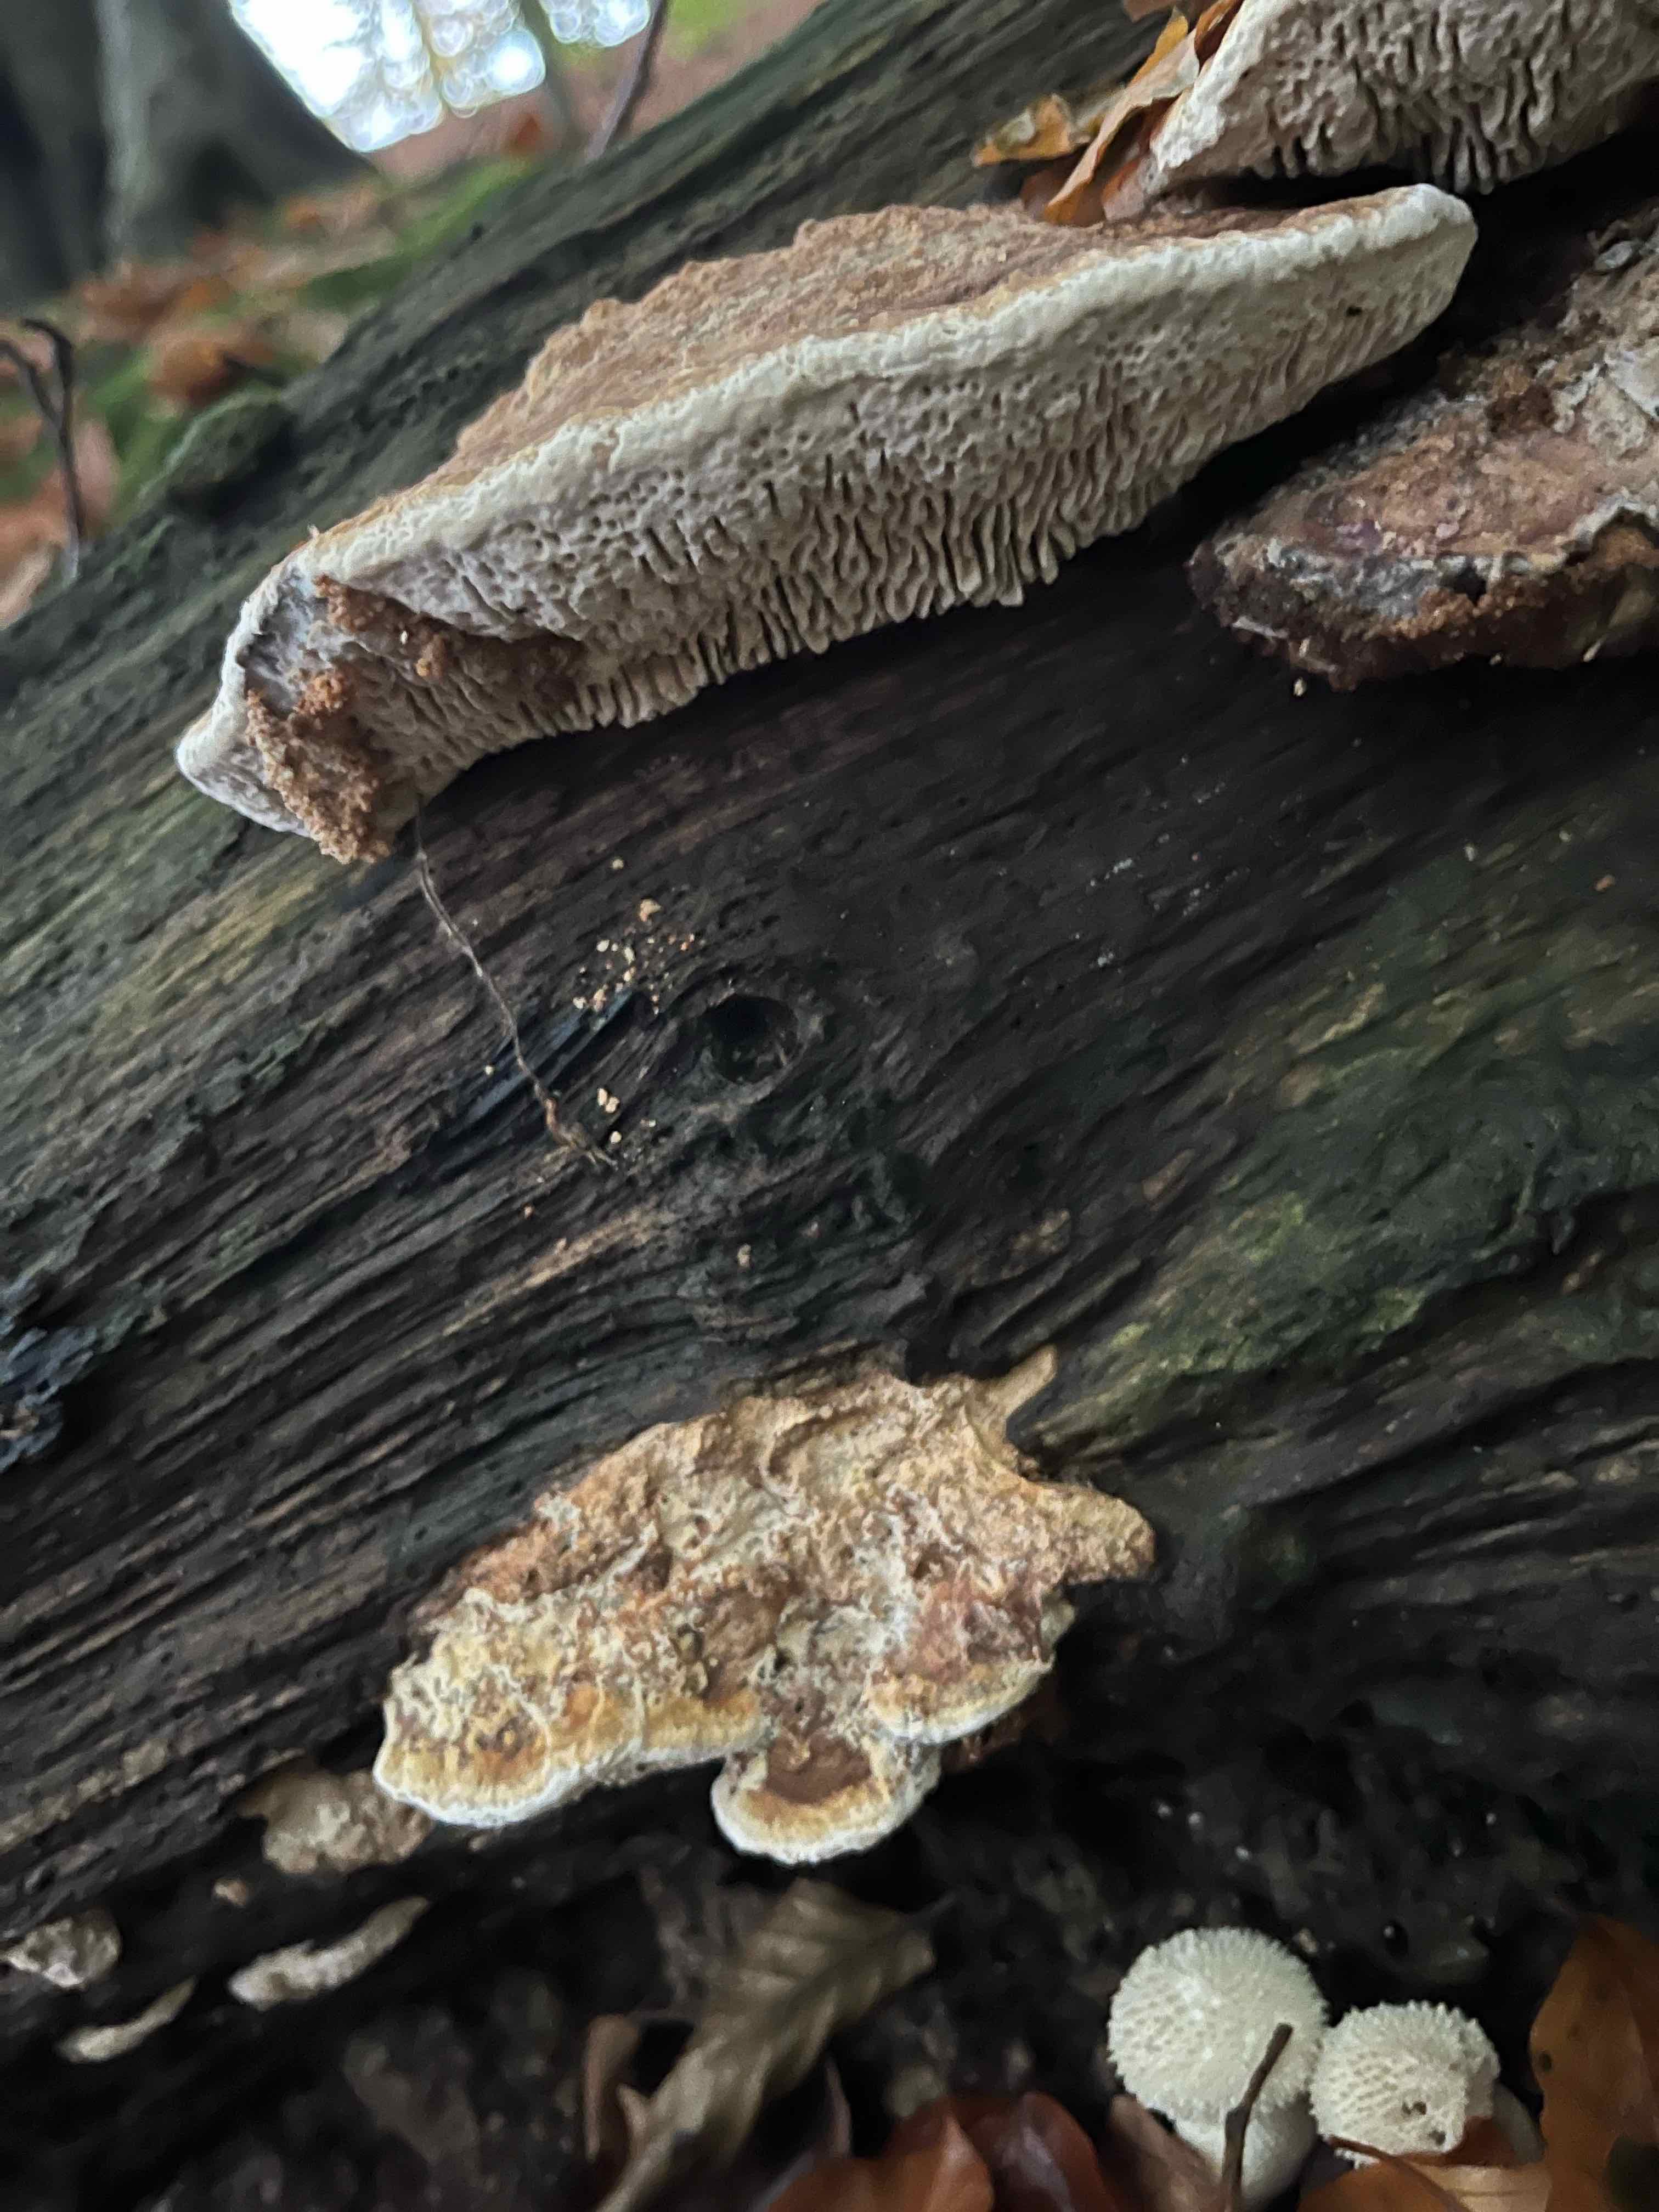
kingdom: Fungi
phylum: Basidiomycota
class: Agaricomycetes
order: Polyporales
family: Fomitopsidaceae
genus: Daedalea
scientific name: Daedalea quercina
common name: ege-labyrintsvamp
